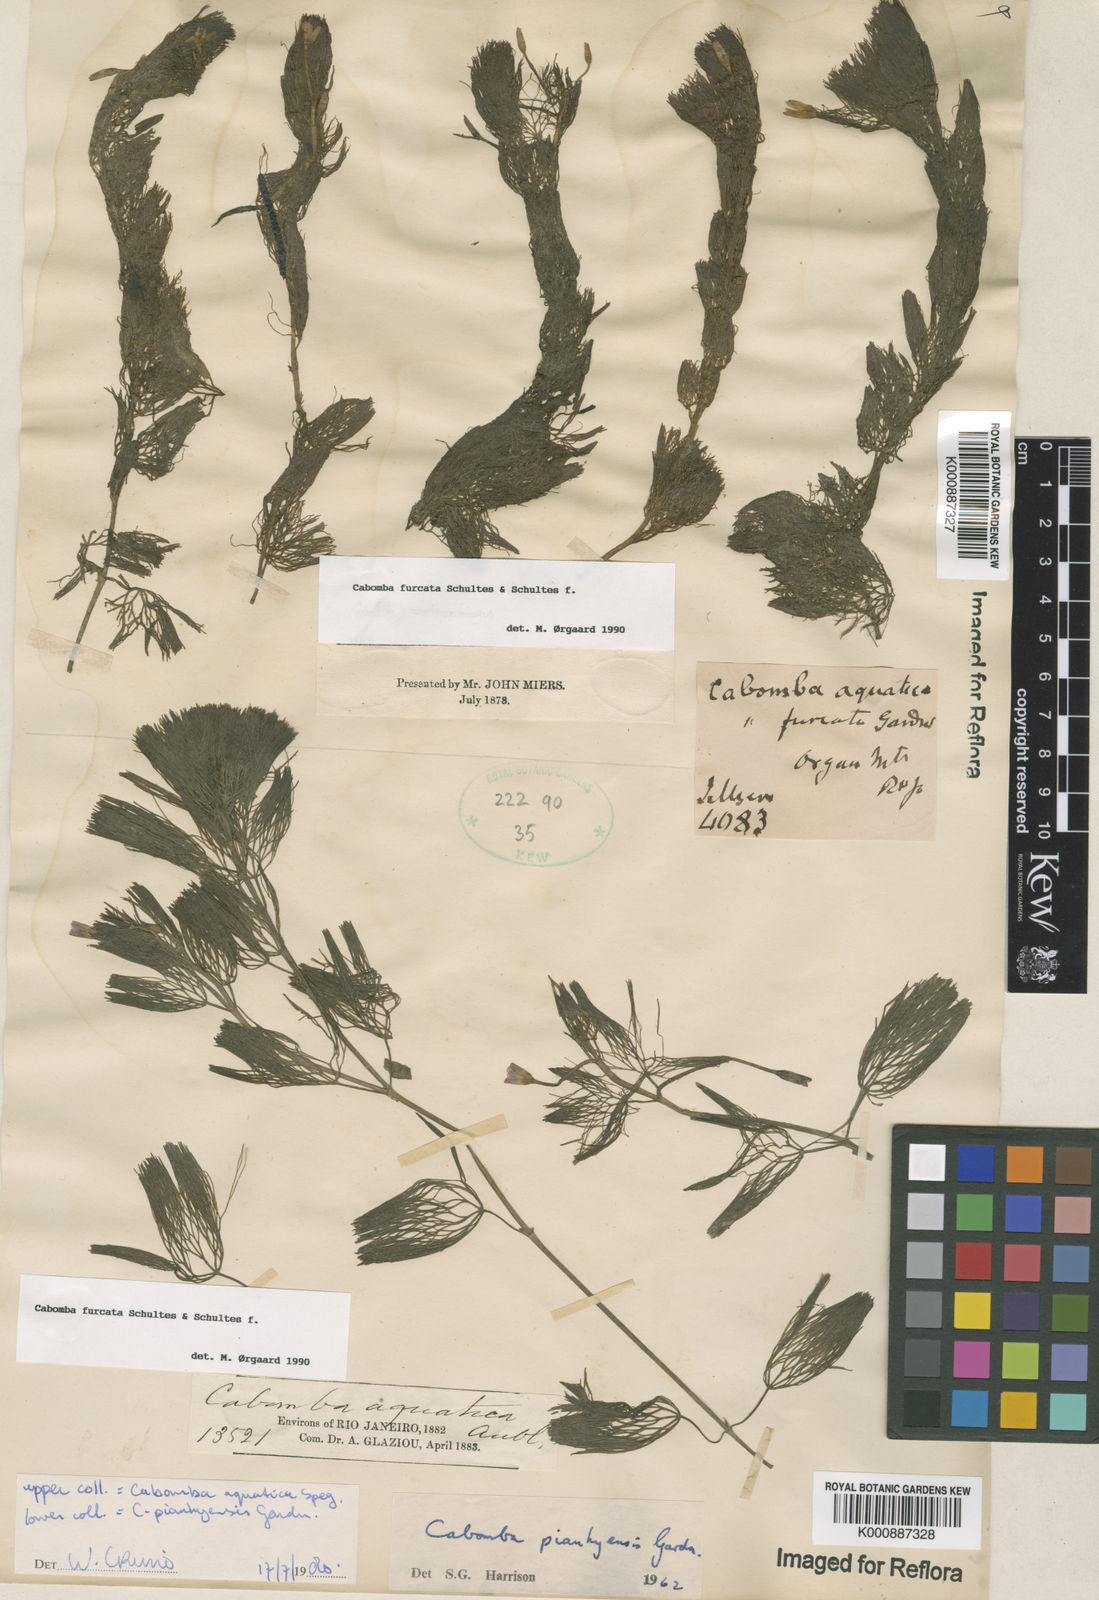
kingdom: Plantae
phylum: Tracheophyta
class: Magnoliopsida
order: Nymphaeales
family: Cabombaceae
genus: Cabomba
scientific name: Cabomba furcata
